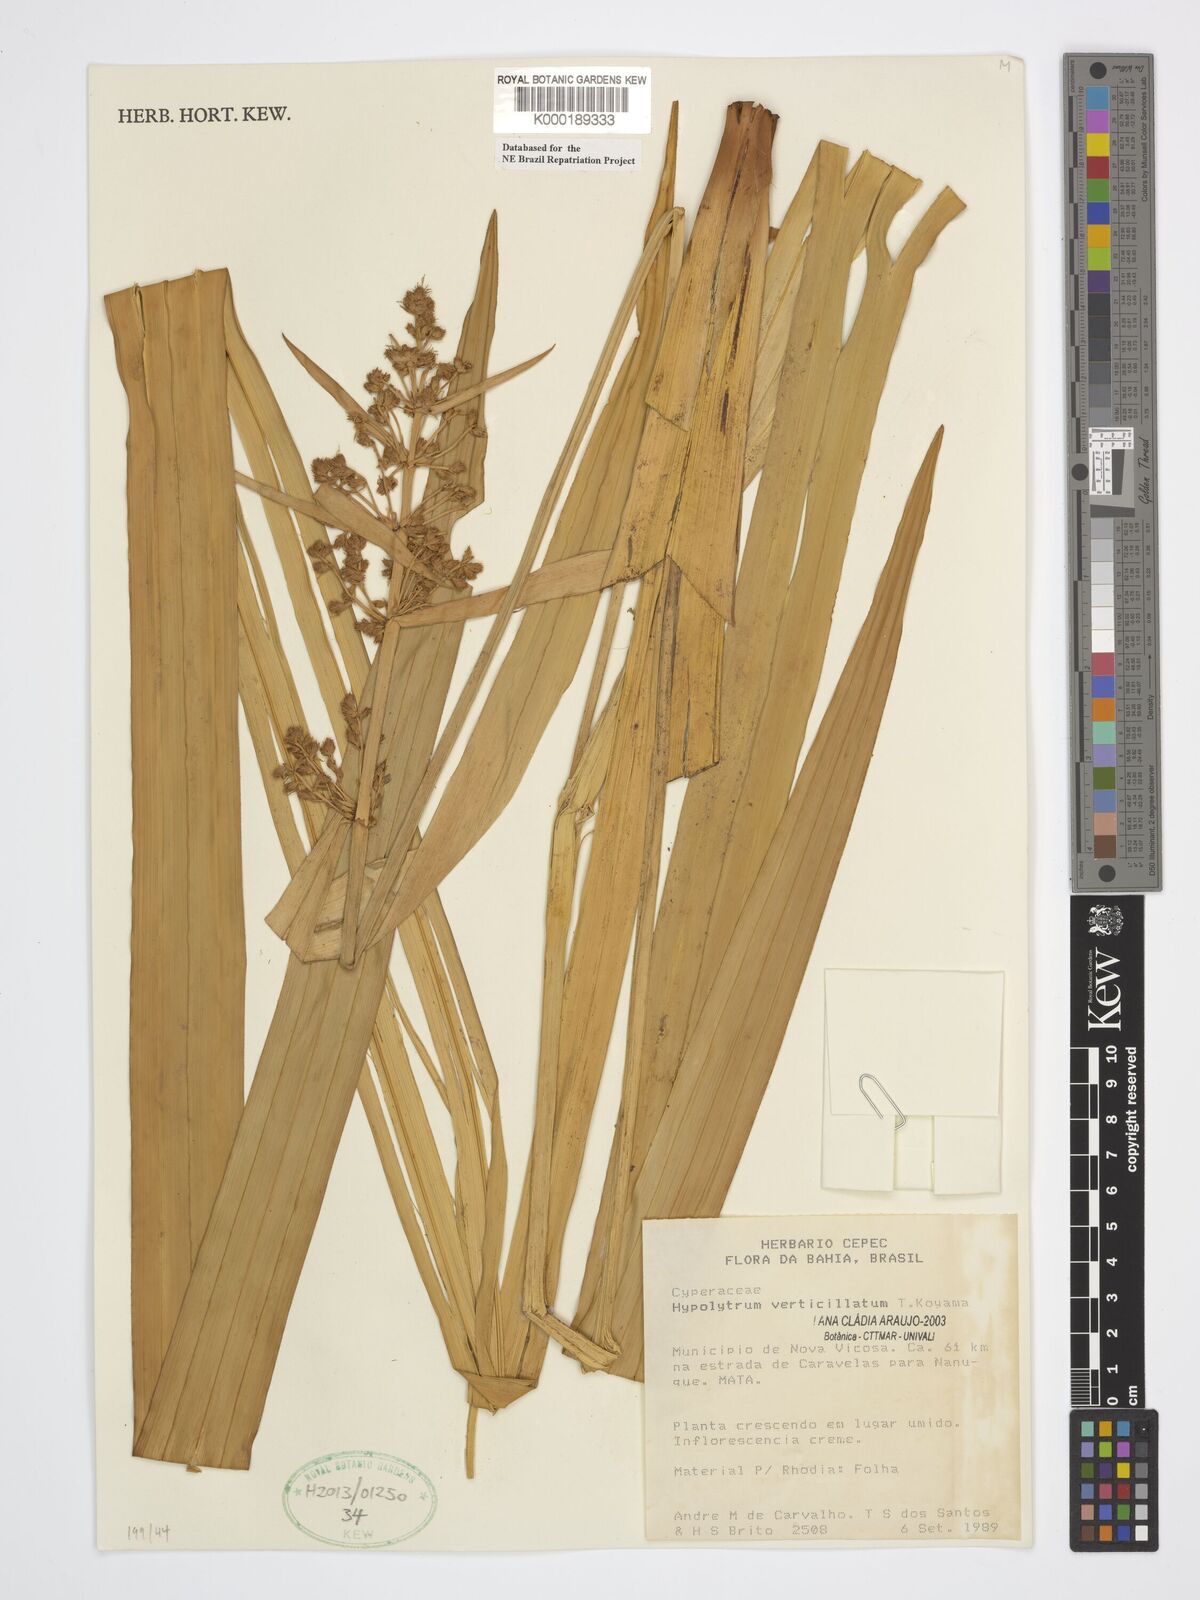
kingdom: Plantae
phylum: Tracheophyta
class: Liliopsida
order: Poales
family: Cyperaceae
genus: Hypolytrum
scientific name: Hypolytrum verticillatum
